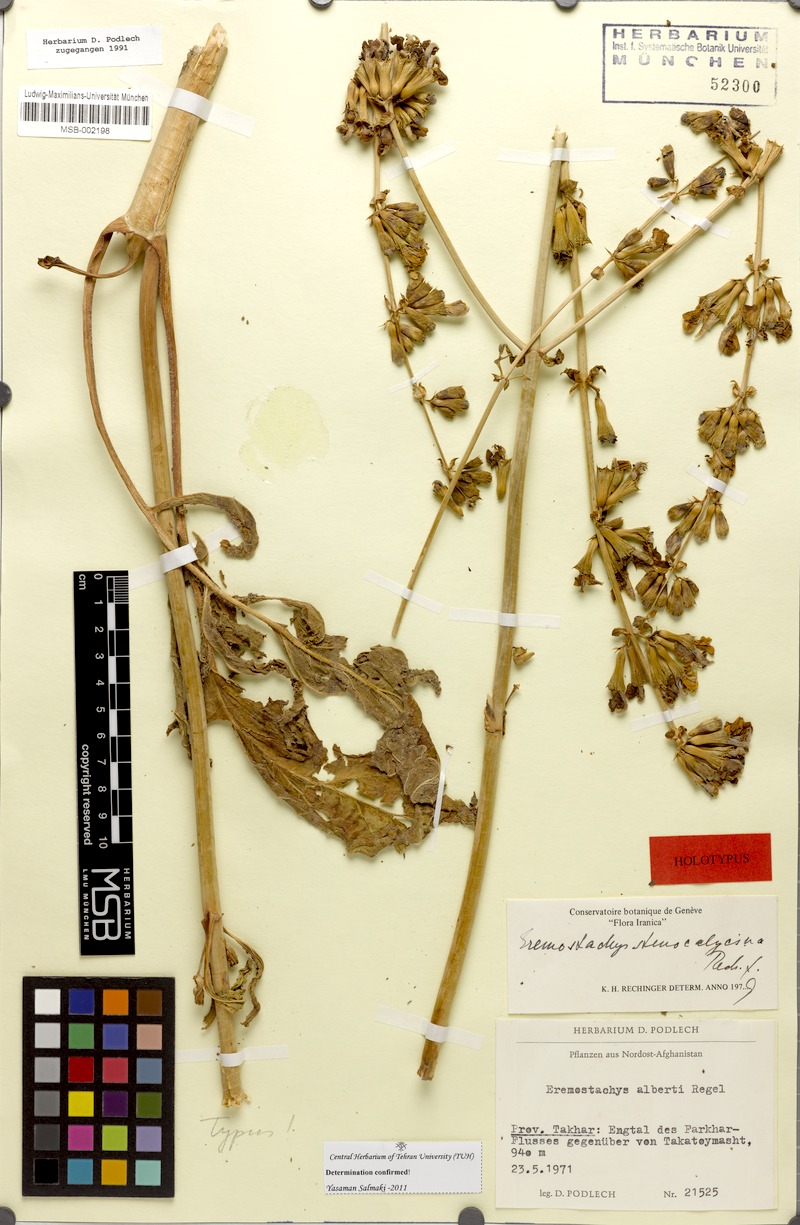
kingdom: Plantae
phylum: Tracheophyta
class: Magnoliopsida
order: Lamiales
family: Lamiaceae
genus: Phlomoides
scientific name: Phlomoides stenocalycina
